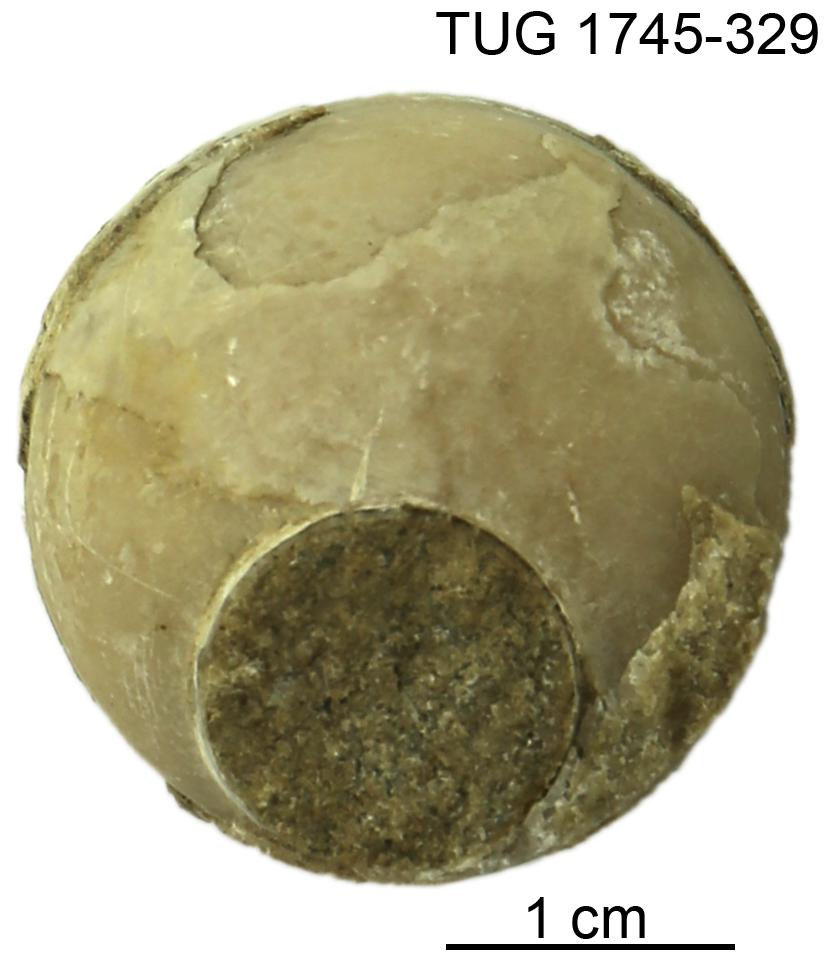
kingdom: Animalia
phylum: Mollusca
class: Cephalopoda
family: Endoceratidae
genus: Endoceras
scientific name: Endoceras
